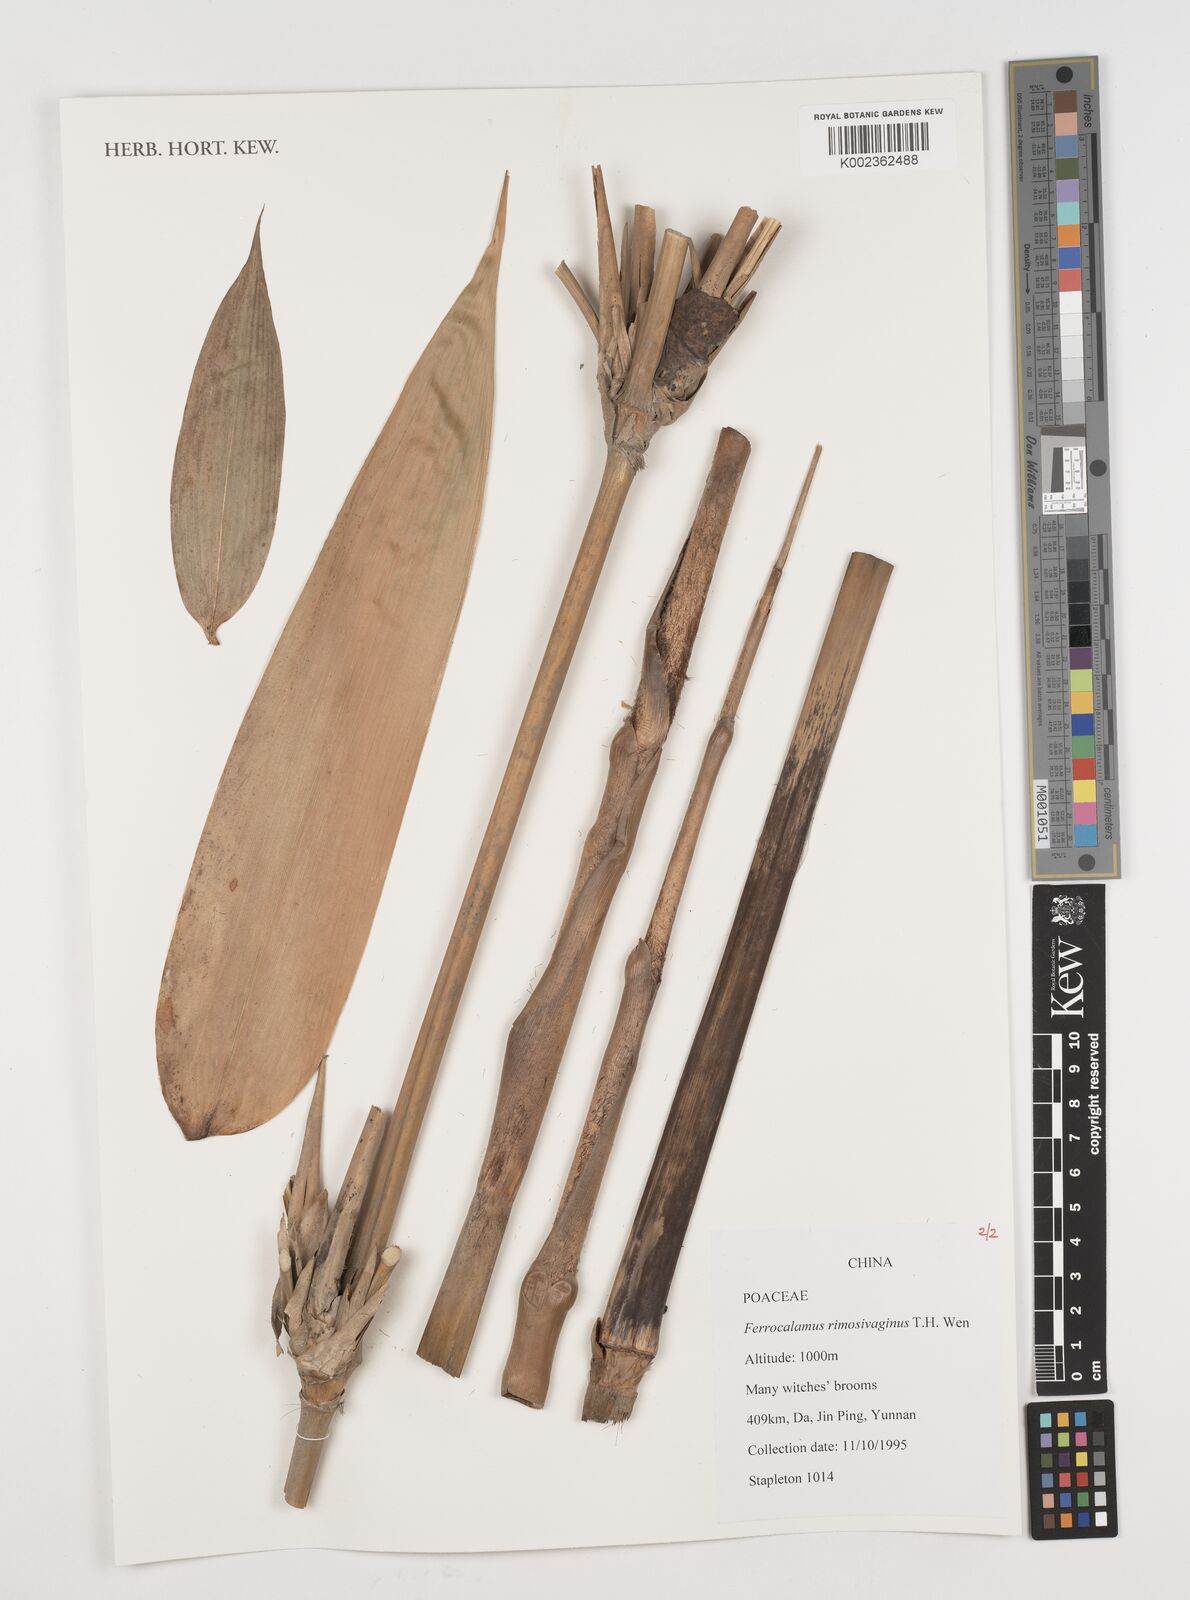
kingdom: Plantae
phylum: Tracheophyta
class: Liliopsida
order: Poales
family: Poaceae
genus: Ferrocalamus
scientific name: Ferrocalamus rimosivaginus
